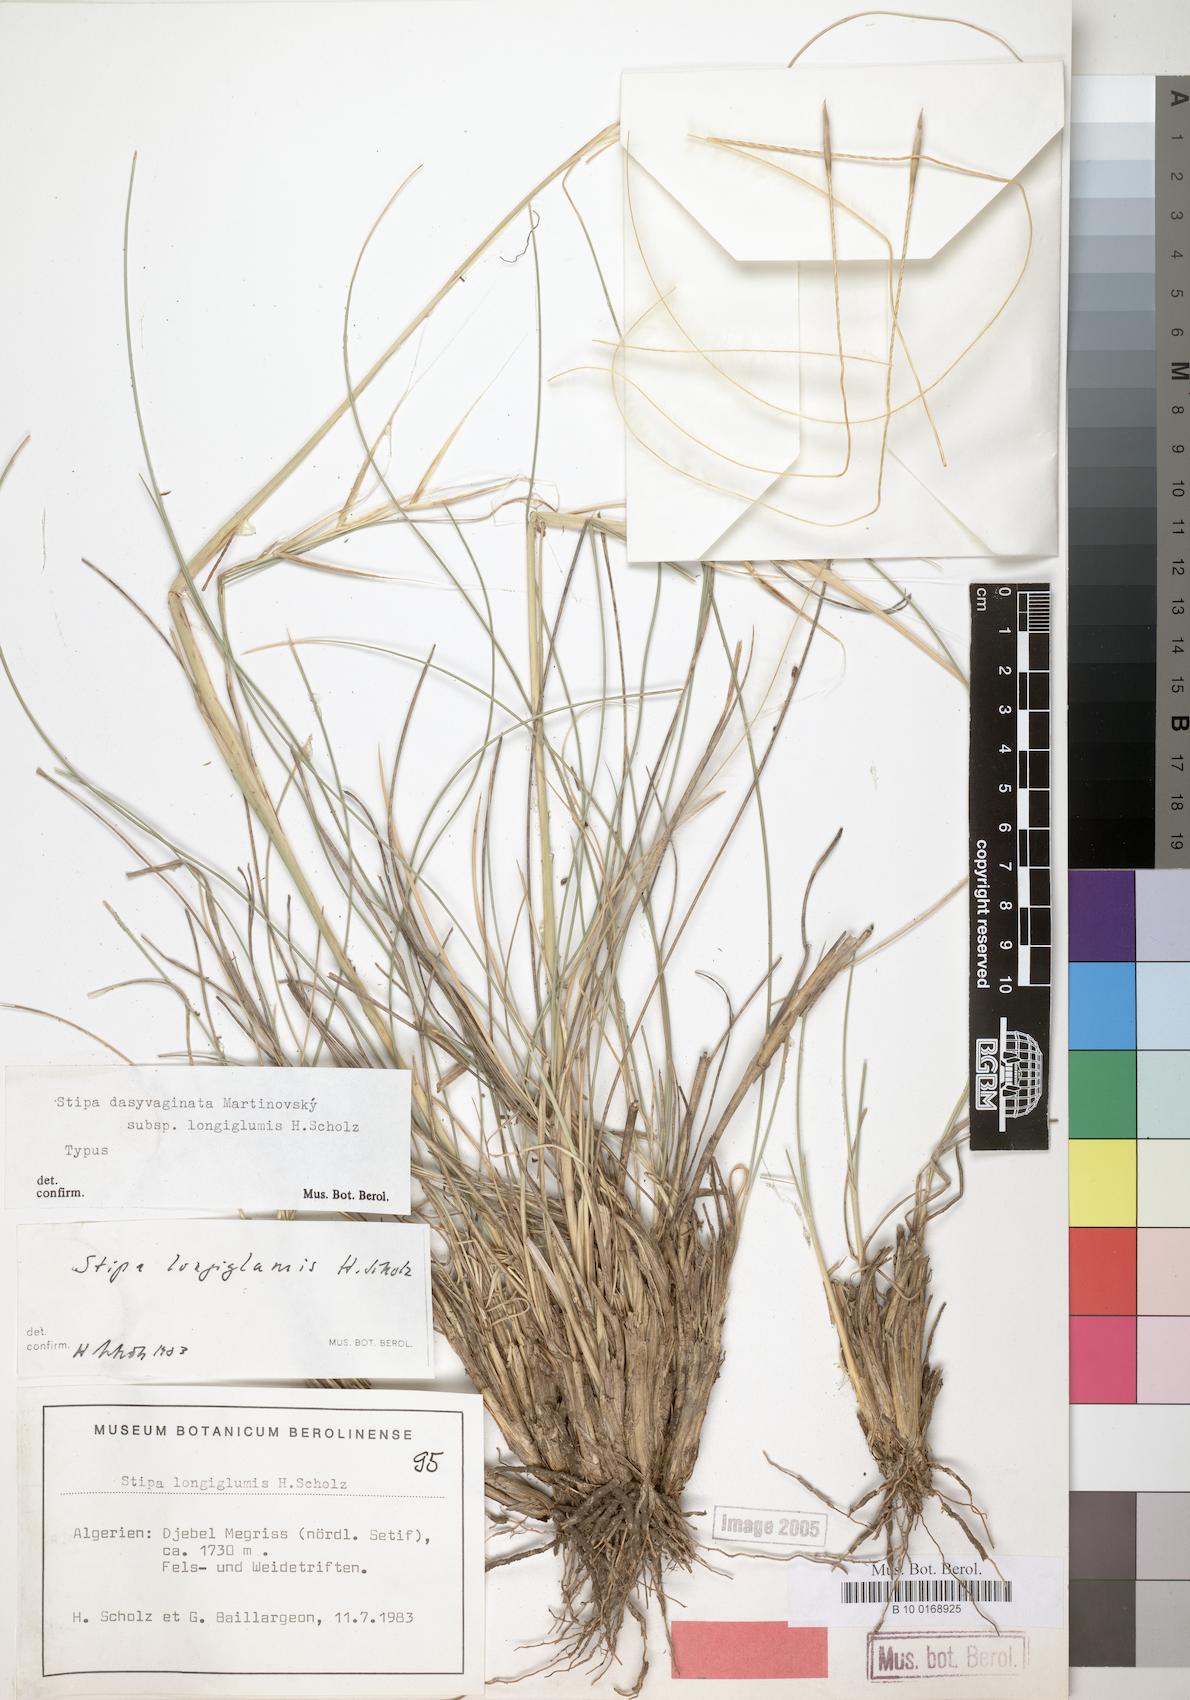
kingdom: Plantae
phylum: Tracheophyta
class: Liliopsida
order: Poales
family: Poaceae
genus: Stipa
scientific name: Stipa apertifolia
